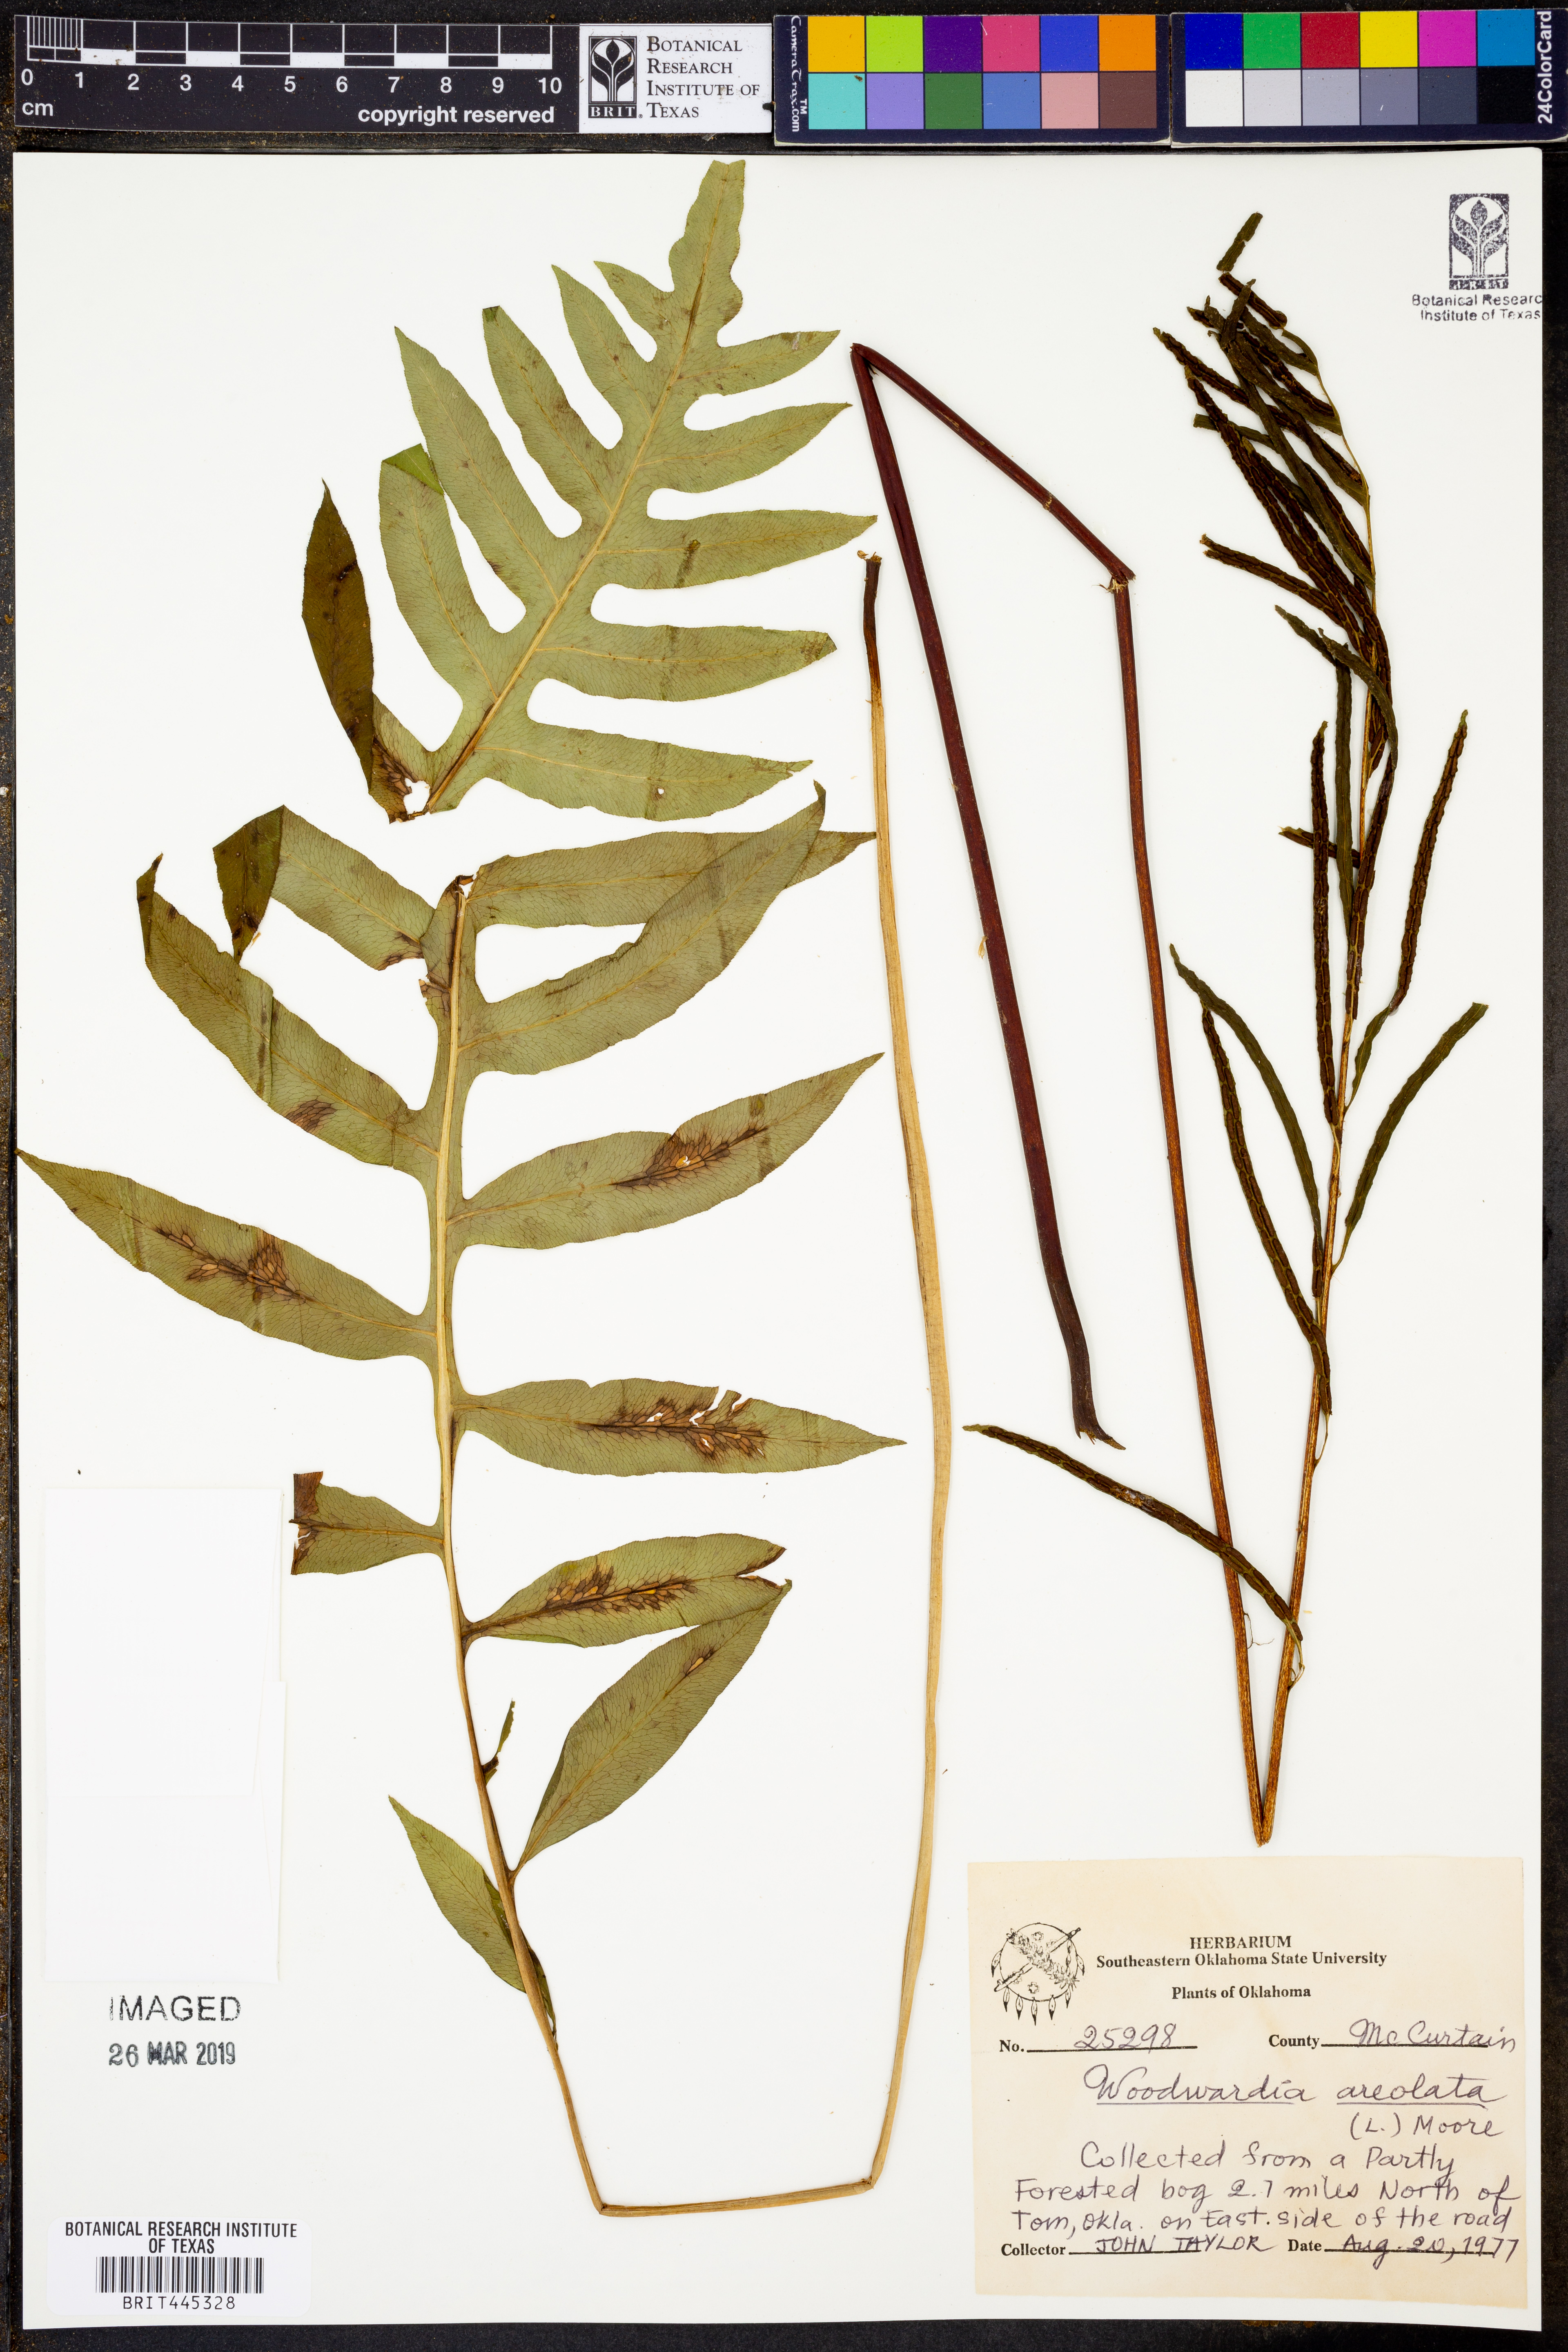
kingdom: Plantae
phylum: Tracheophyta
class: Polypodiopsida
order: Polypodiales
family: Blechnaceae
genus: Lorinseria
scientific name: Lorinseria areolata
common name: Dwarf chain fern
